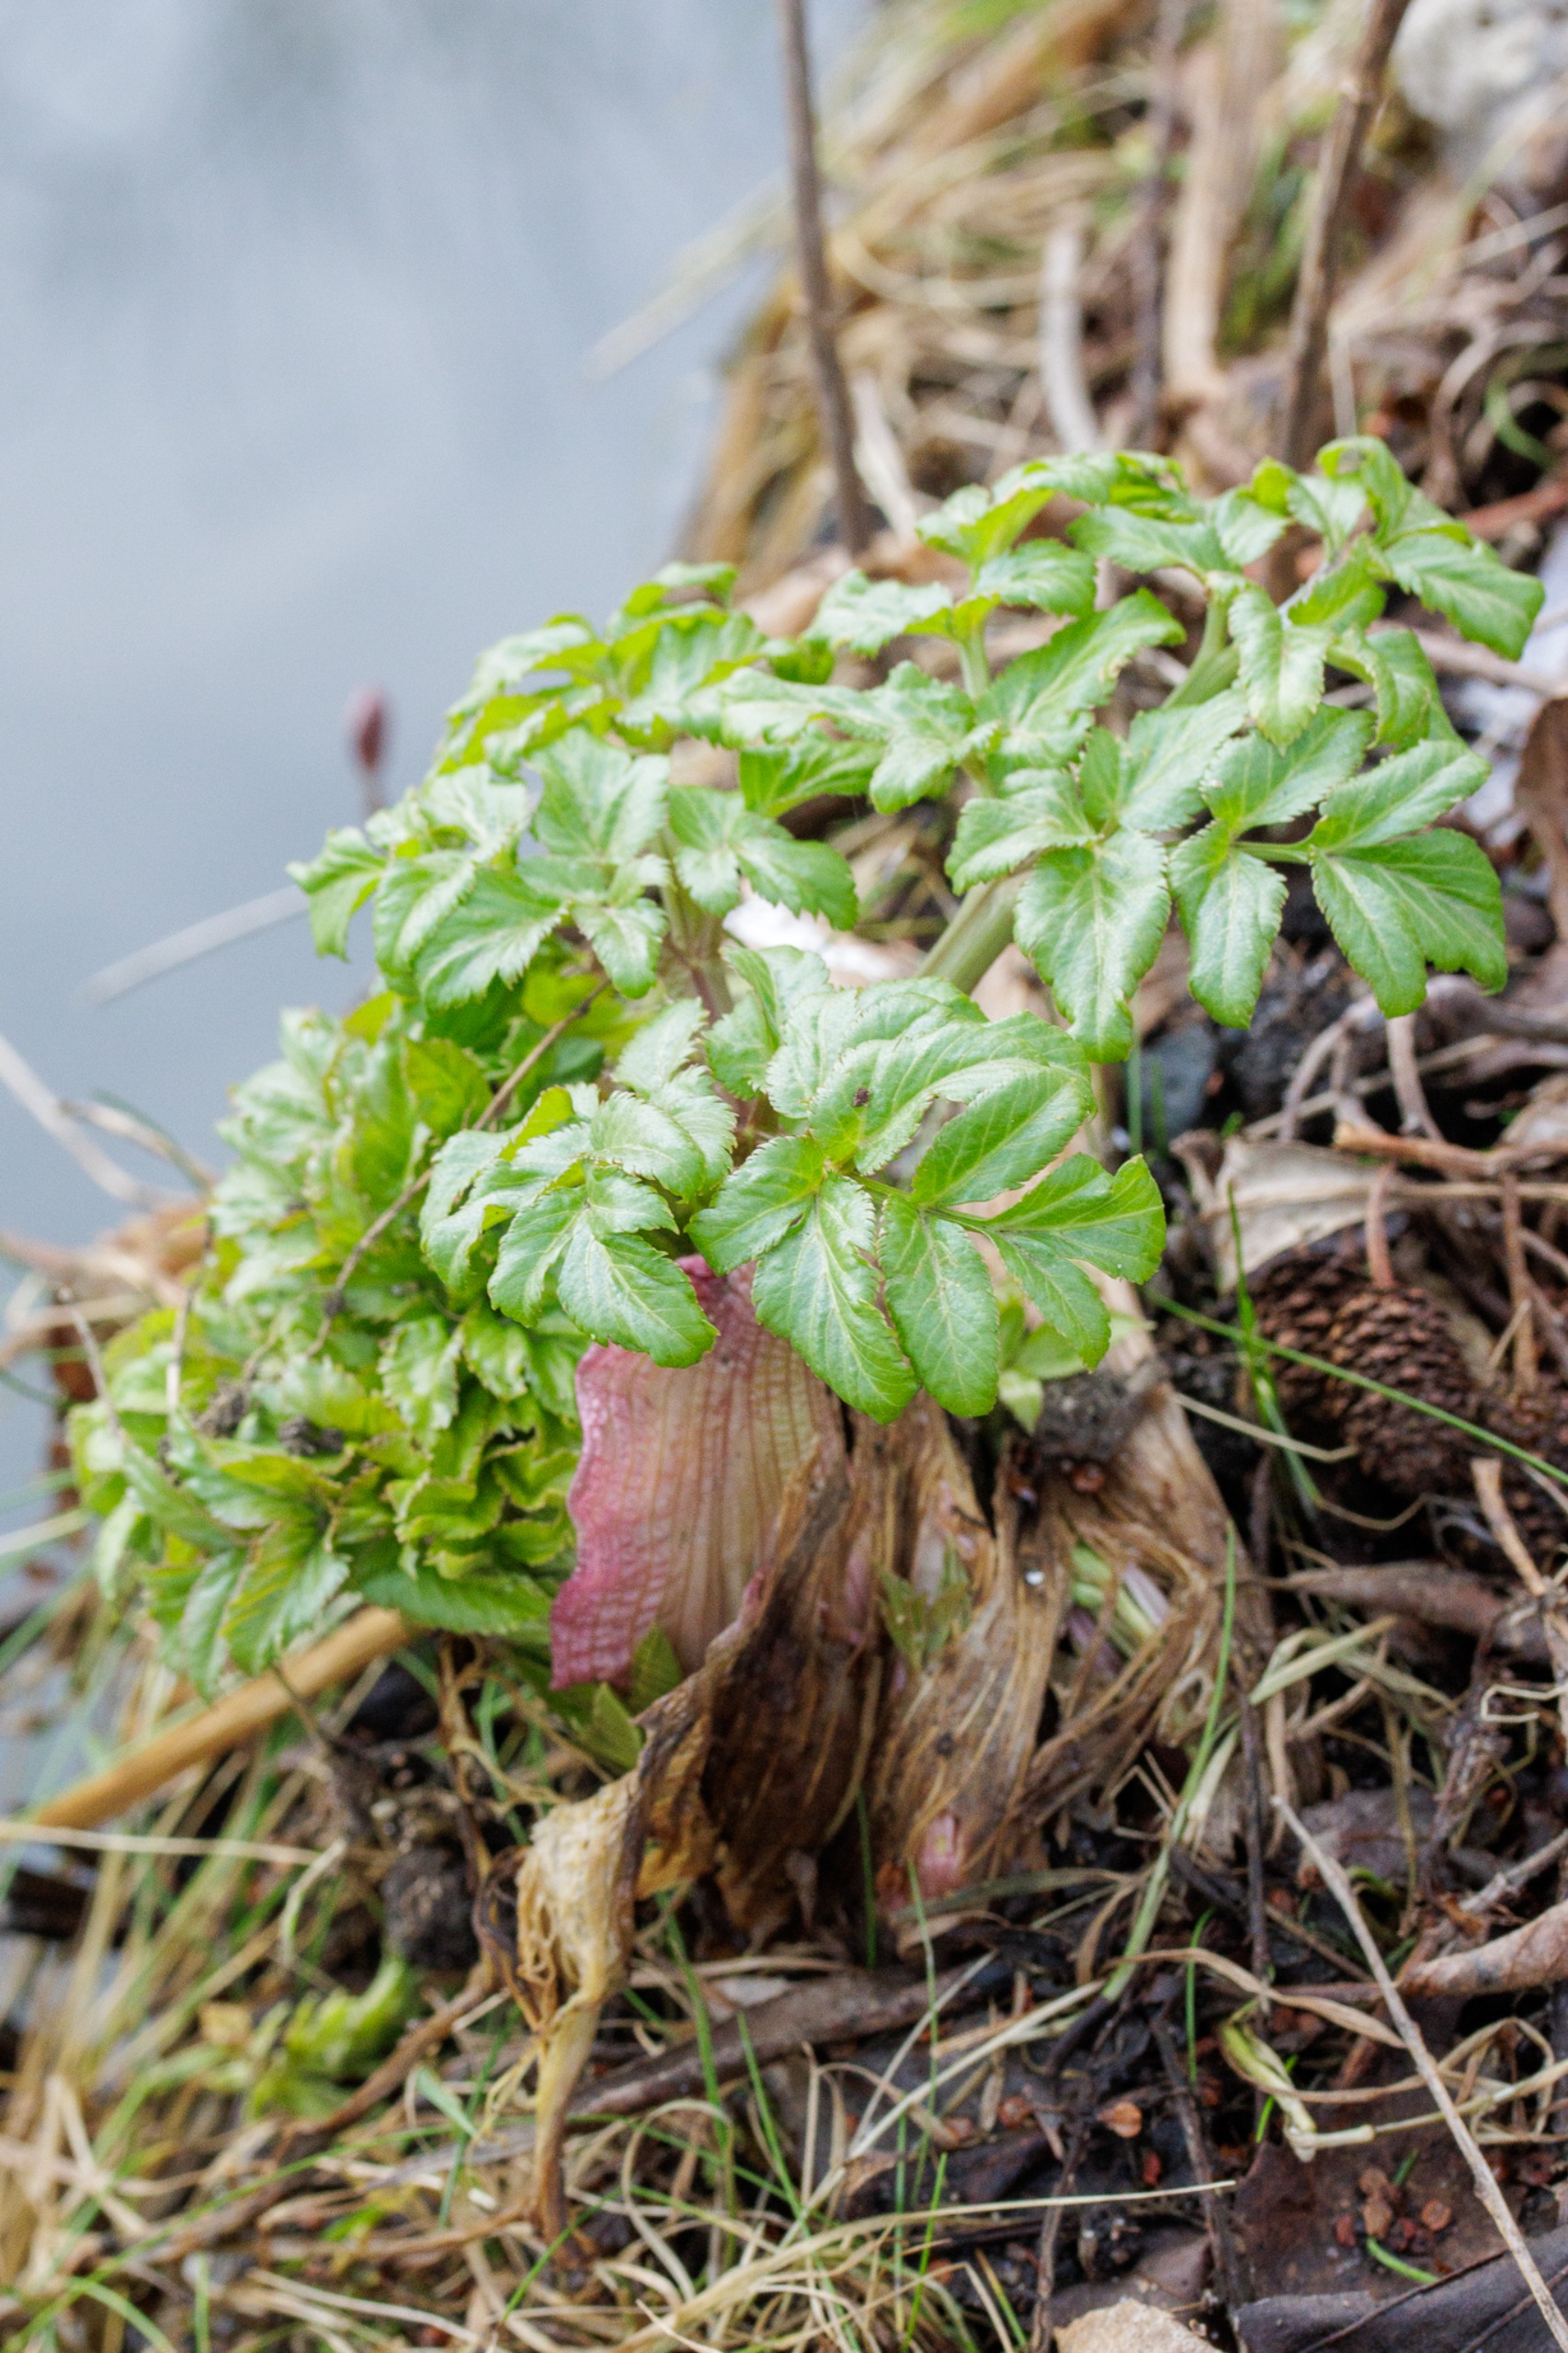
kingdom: Plantae
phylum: Tracheophyta
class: Magnoliopsida
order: Apiales
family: Apiaceae
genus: Angelica
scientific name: Angelica archangelica
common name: Kvan
